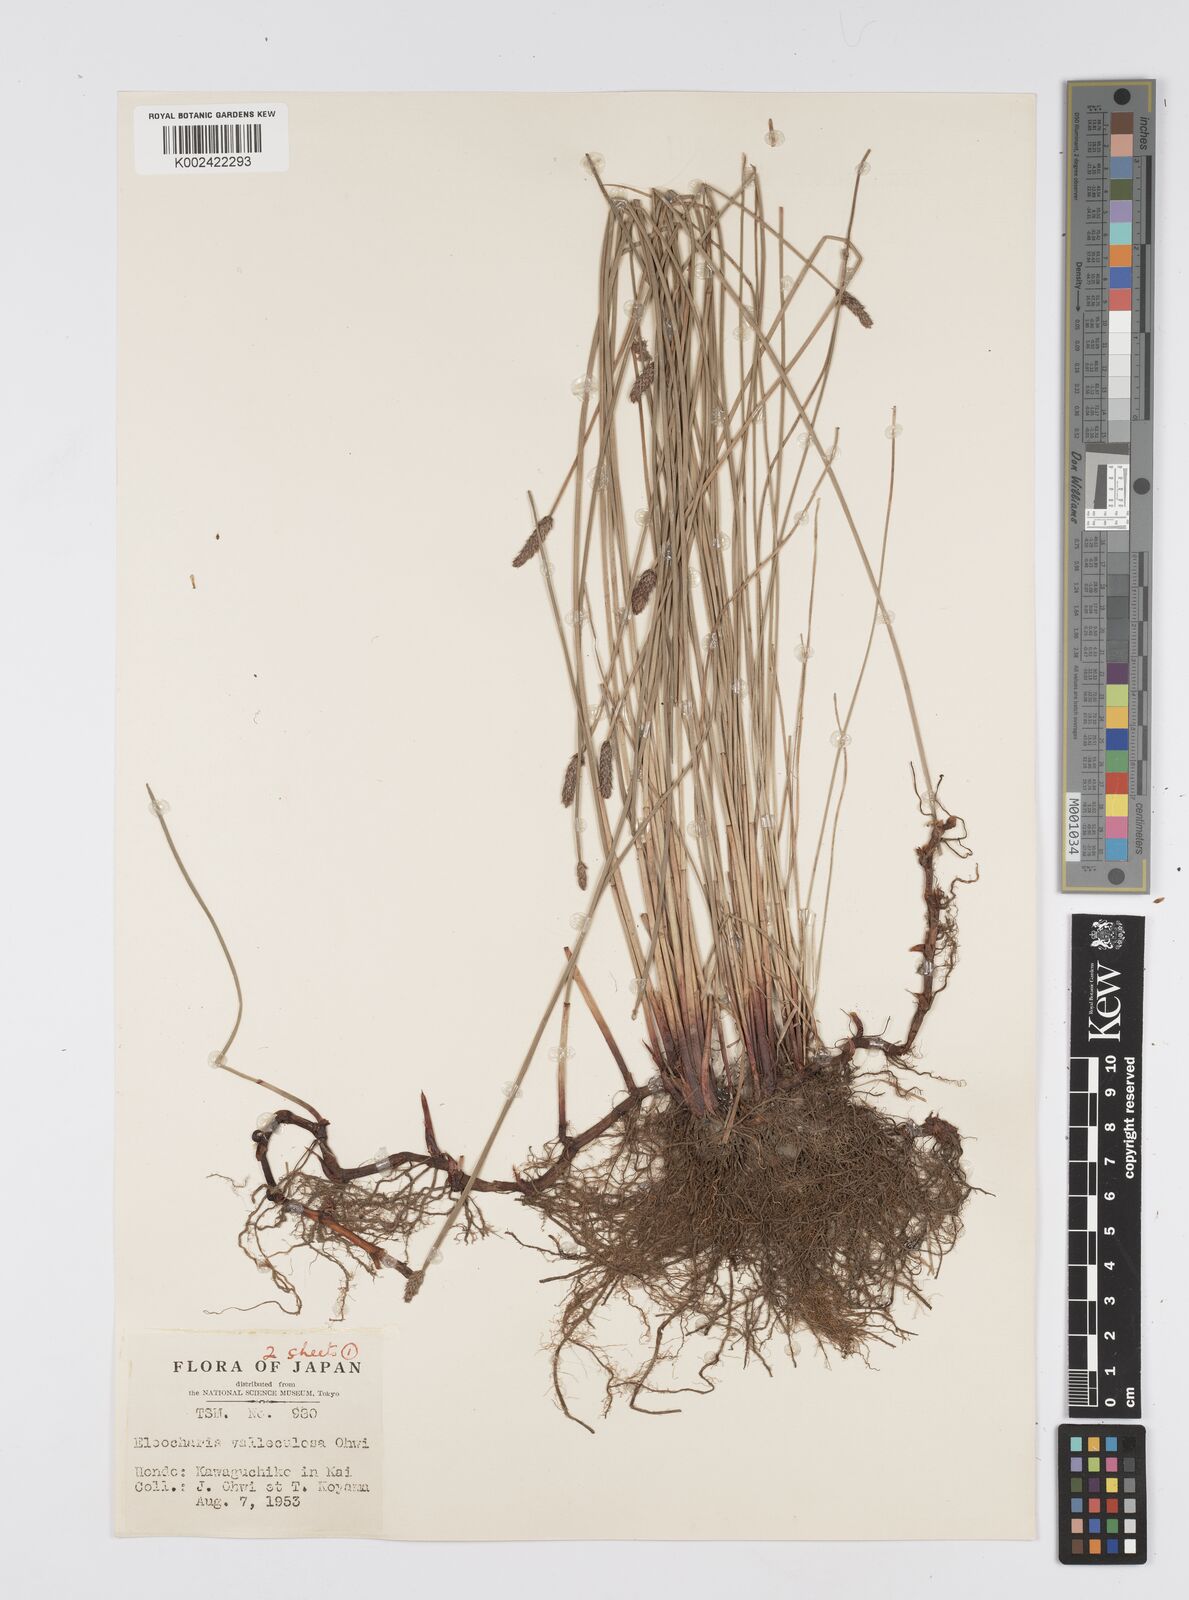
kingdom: Plantae
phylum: Tracheophyta
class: Liliopsida
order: Poales
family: Cyperaceae
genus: Eleocharis
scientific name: Eleocharis valleculosa
